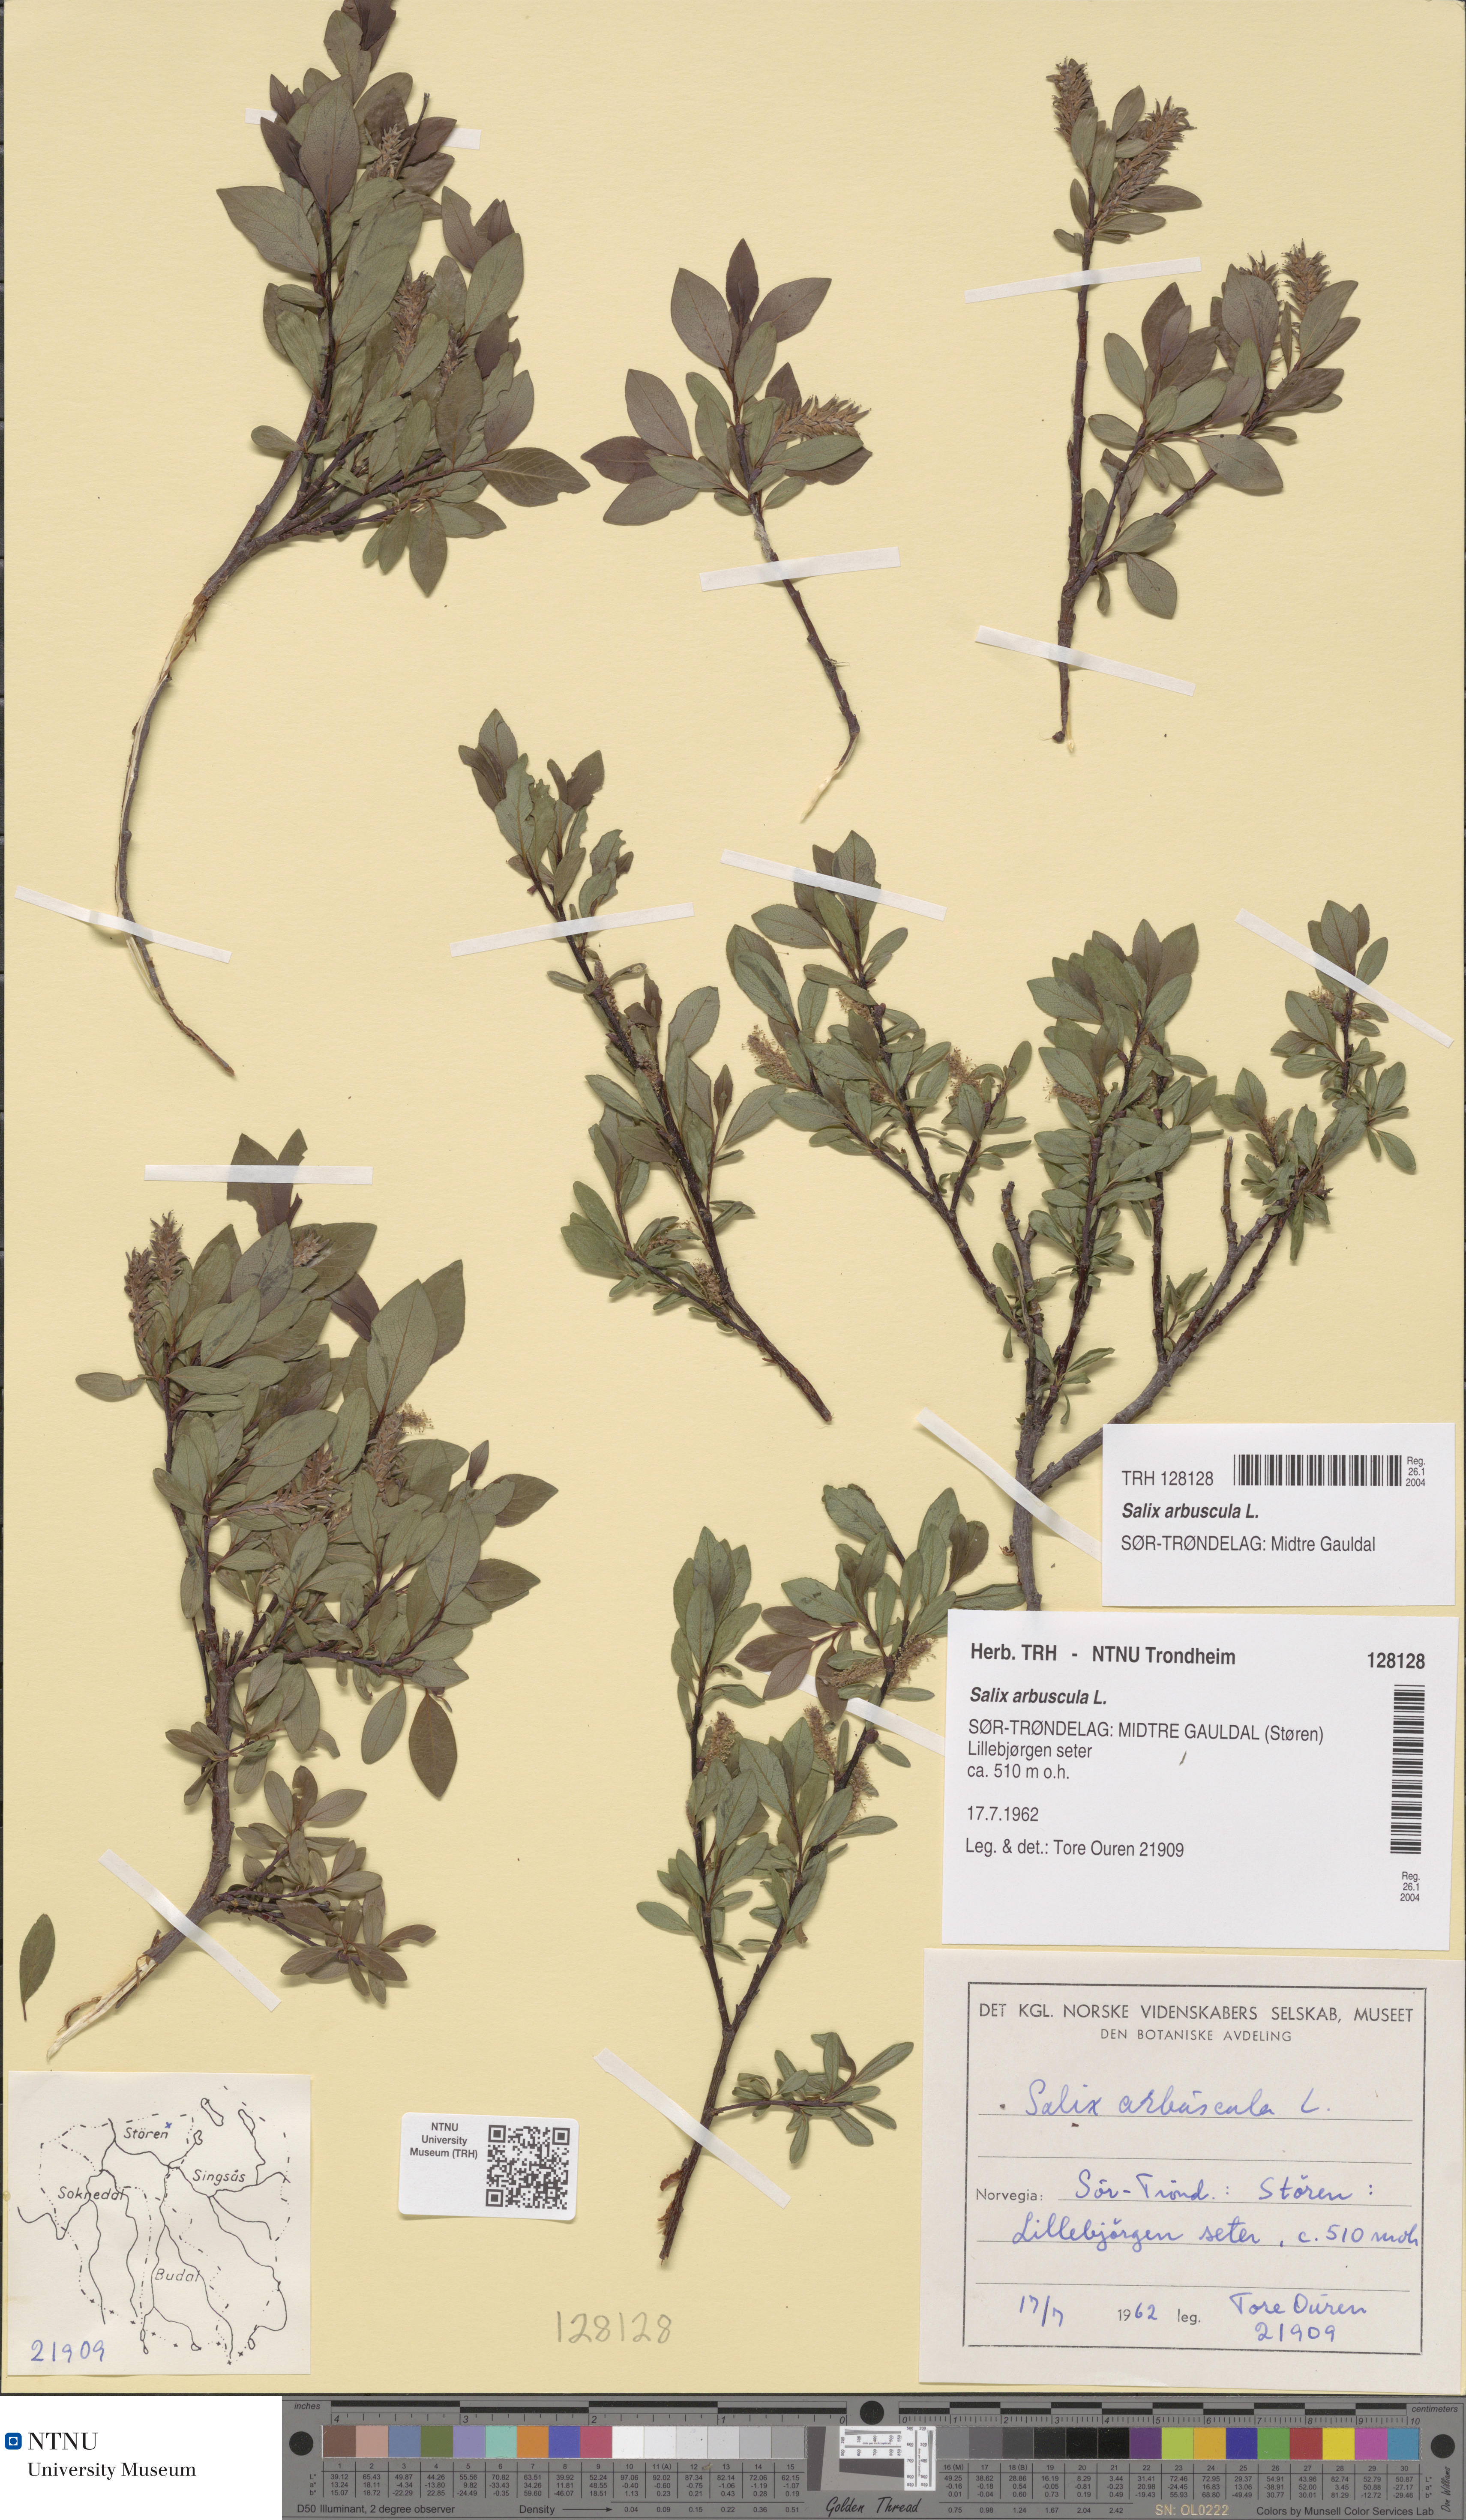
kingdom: Plantae
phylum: Tracheophyta
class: Magnoliopsida
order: Malpighiales
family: Salicaceae
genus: Salix
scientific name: Salix arbuscula
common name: Mountain willow
